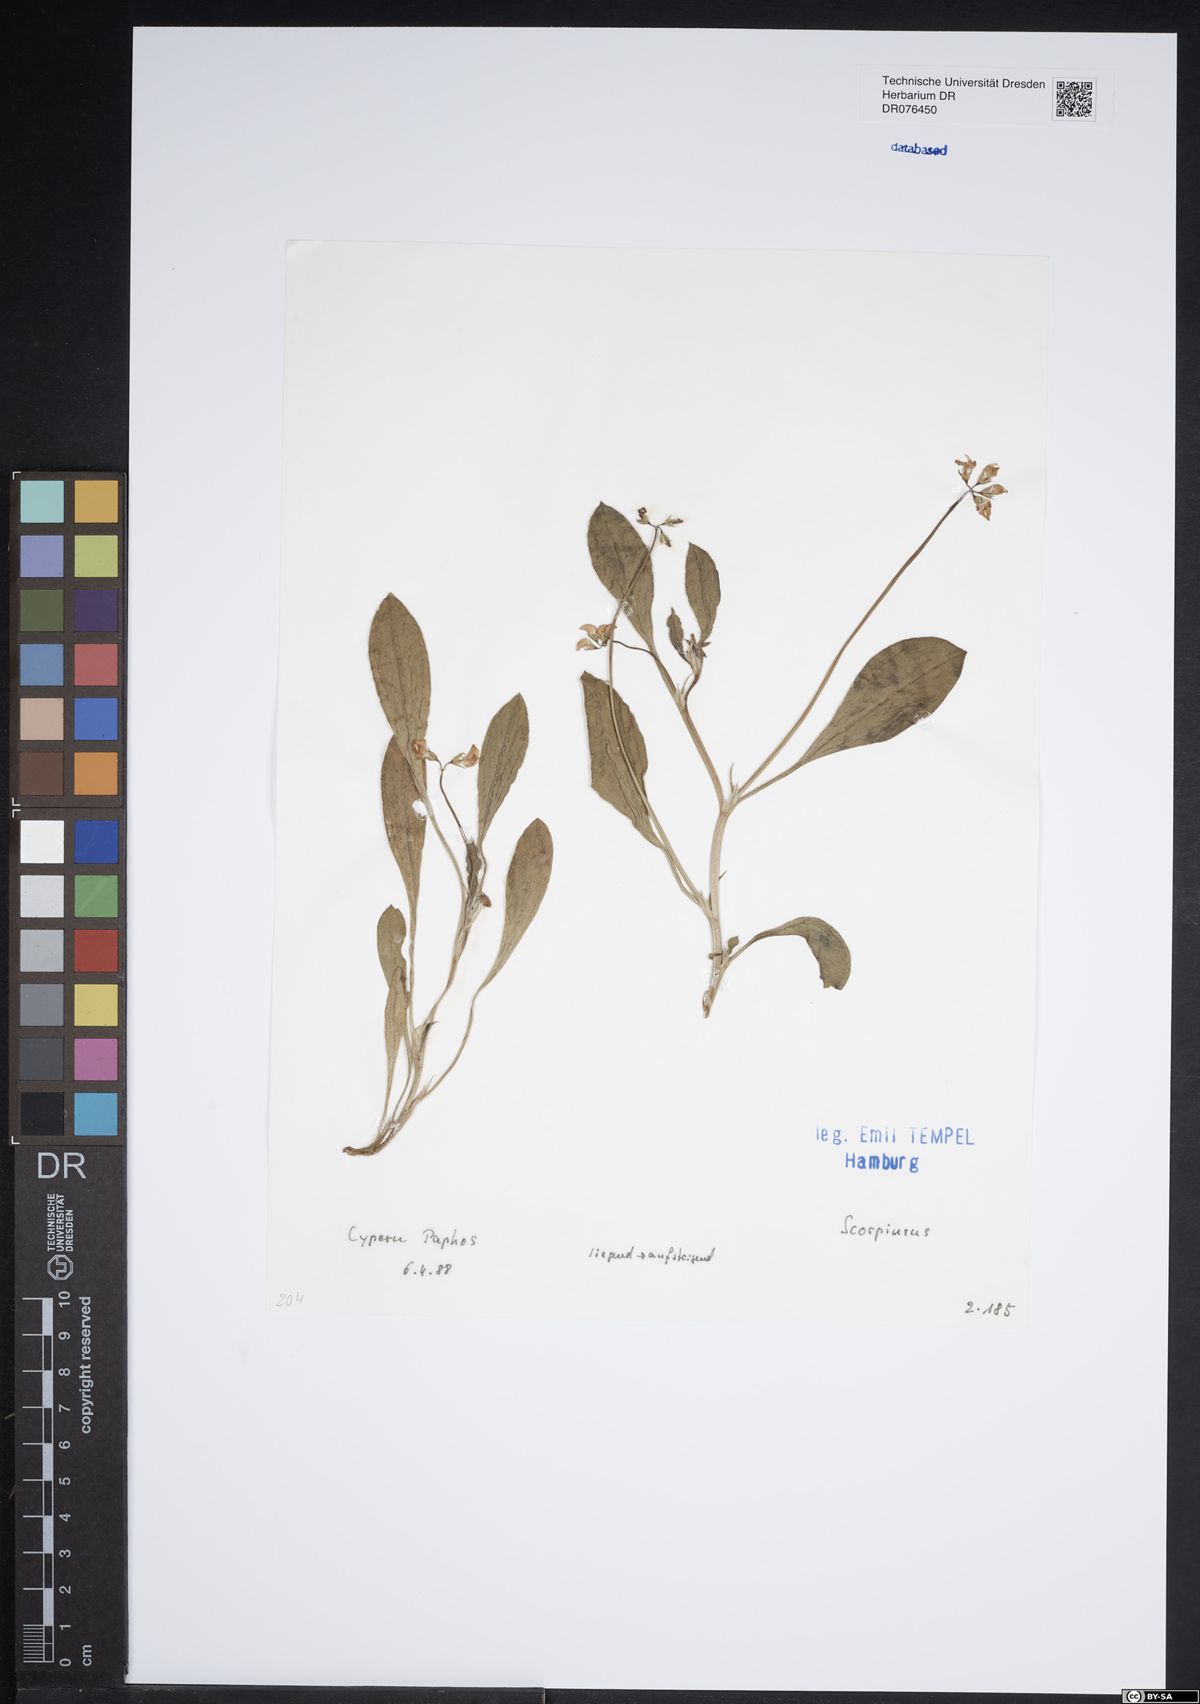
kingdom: Plantae
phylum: Tracheophyta
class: Magnoliopsida
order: Fabales
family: Fabaceae
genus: Scorpiurus
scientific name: Scorpiurus
